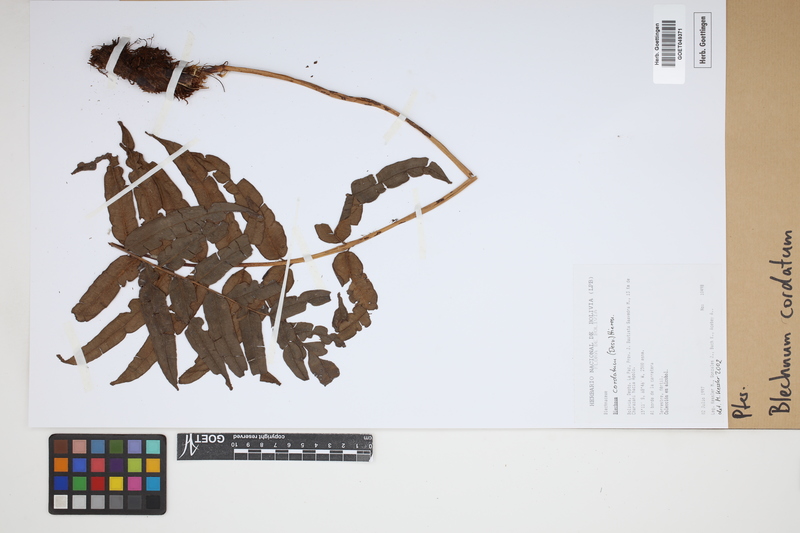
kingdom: Plantae
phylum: Tracheophyta
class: Polypodiopsida
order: Polypodiales
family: Blechnaceae
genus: Parablechnum
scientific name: Parablechnum cordatum
